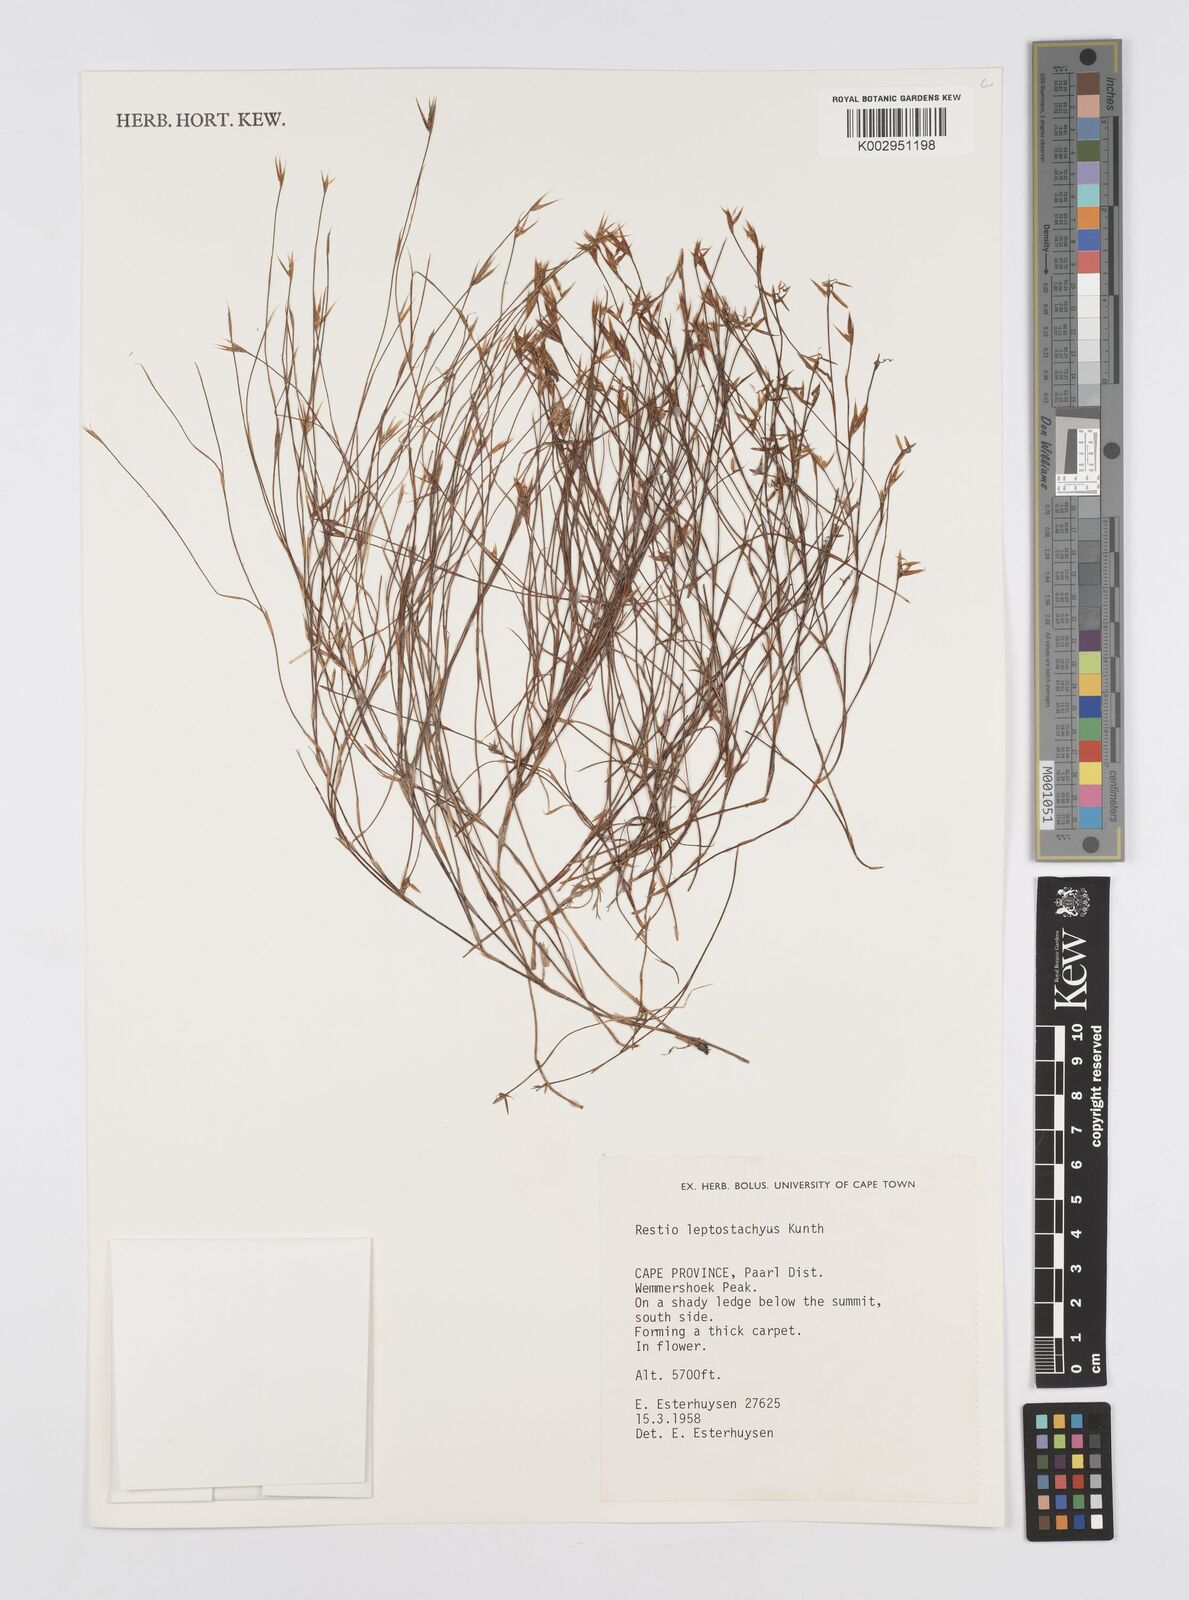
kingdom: Plantae
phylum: Tracheophyta
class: Liliopsida
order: Poales
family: Restionaceae
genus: Restio
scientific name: Restio leptostachyus
